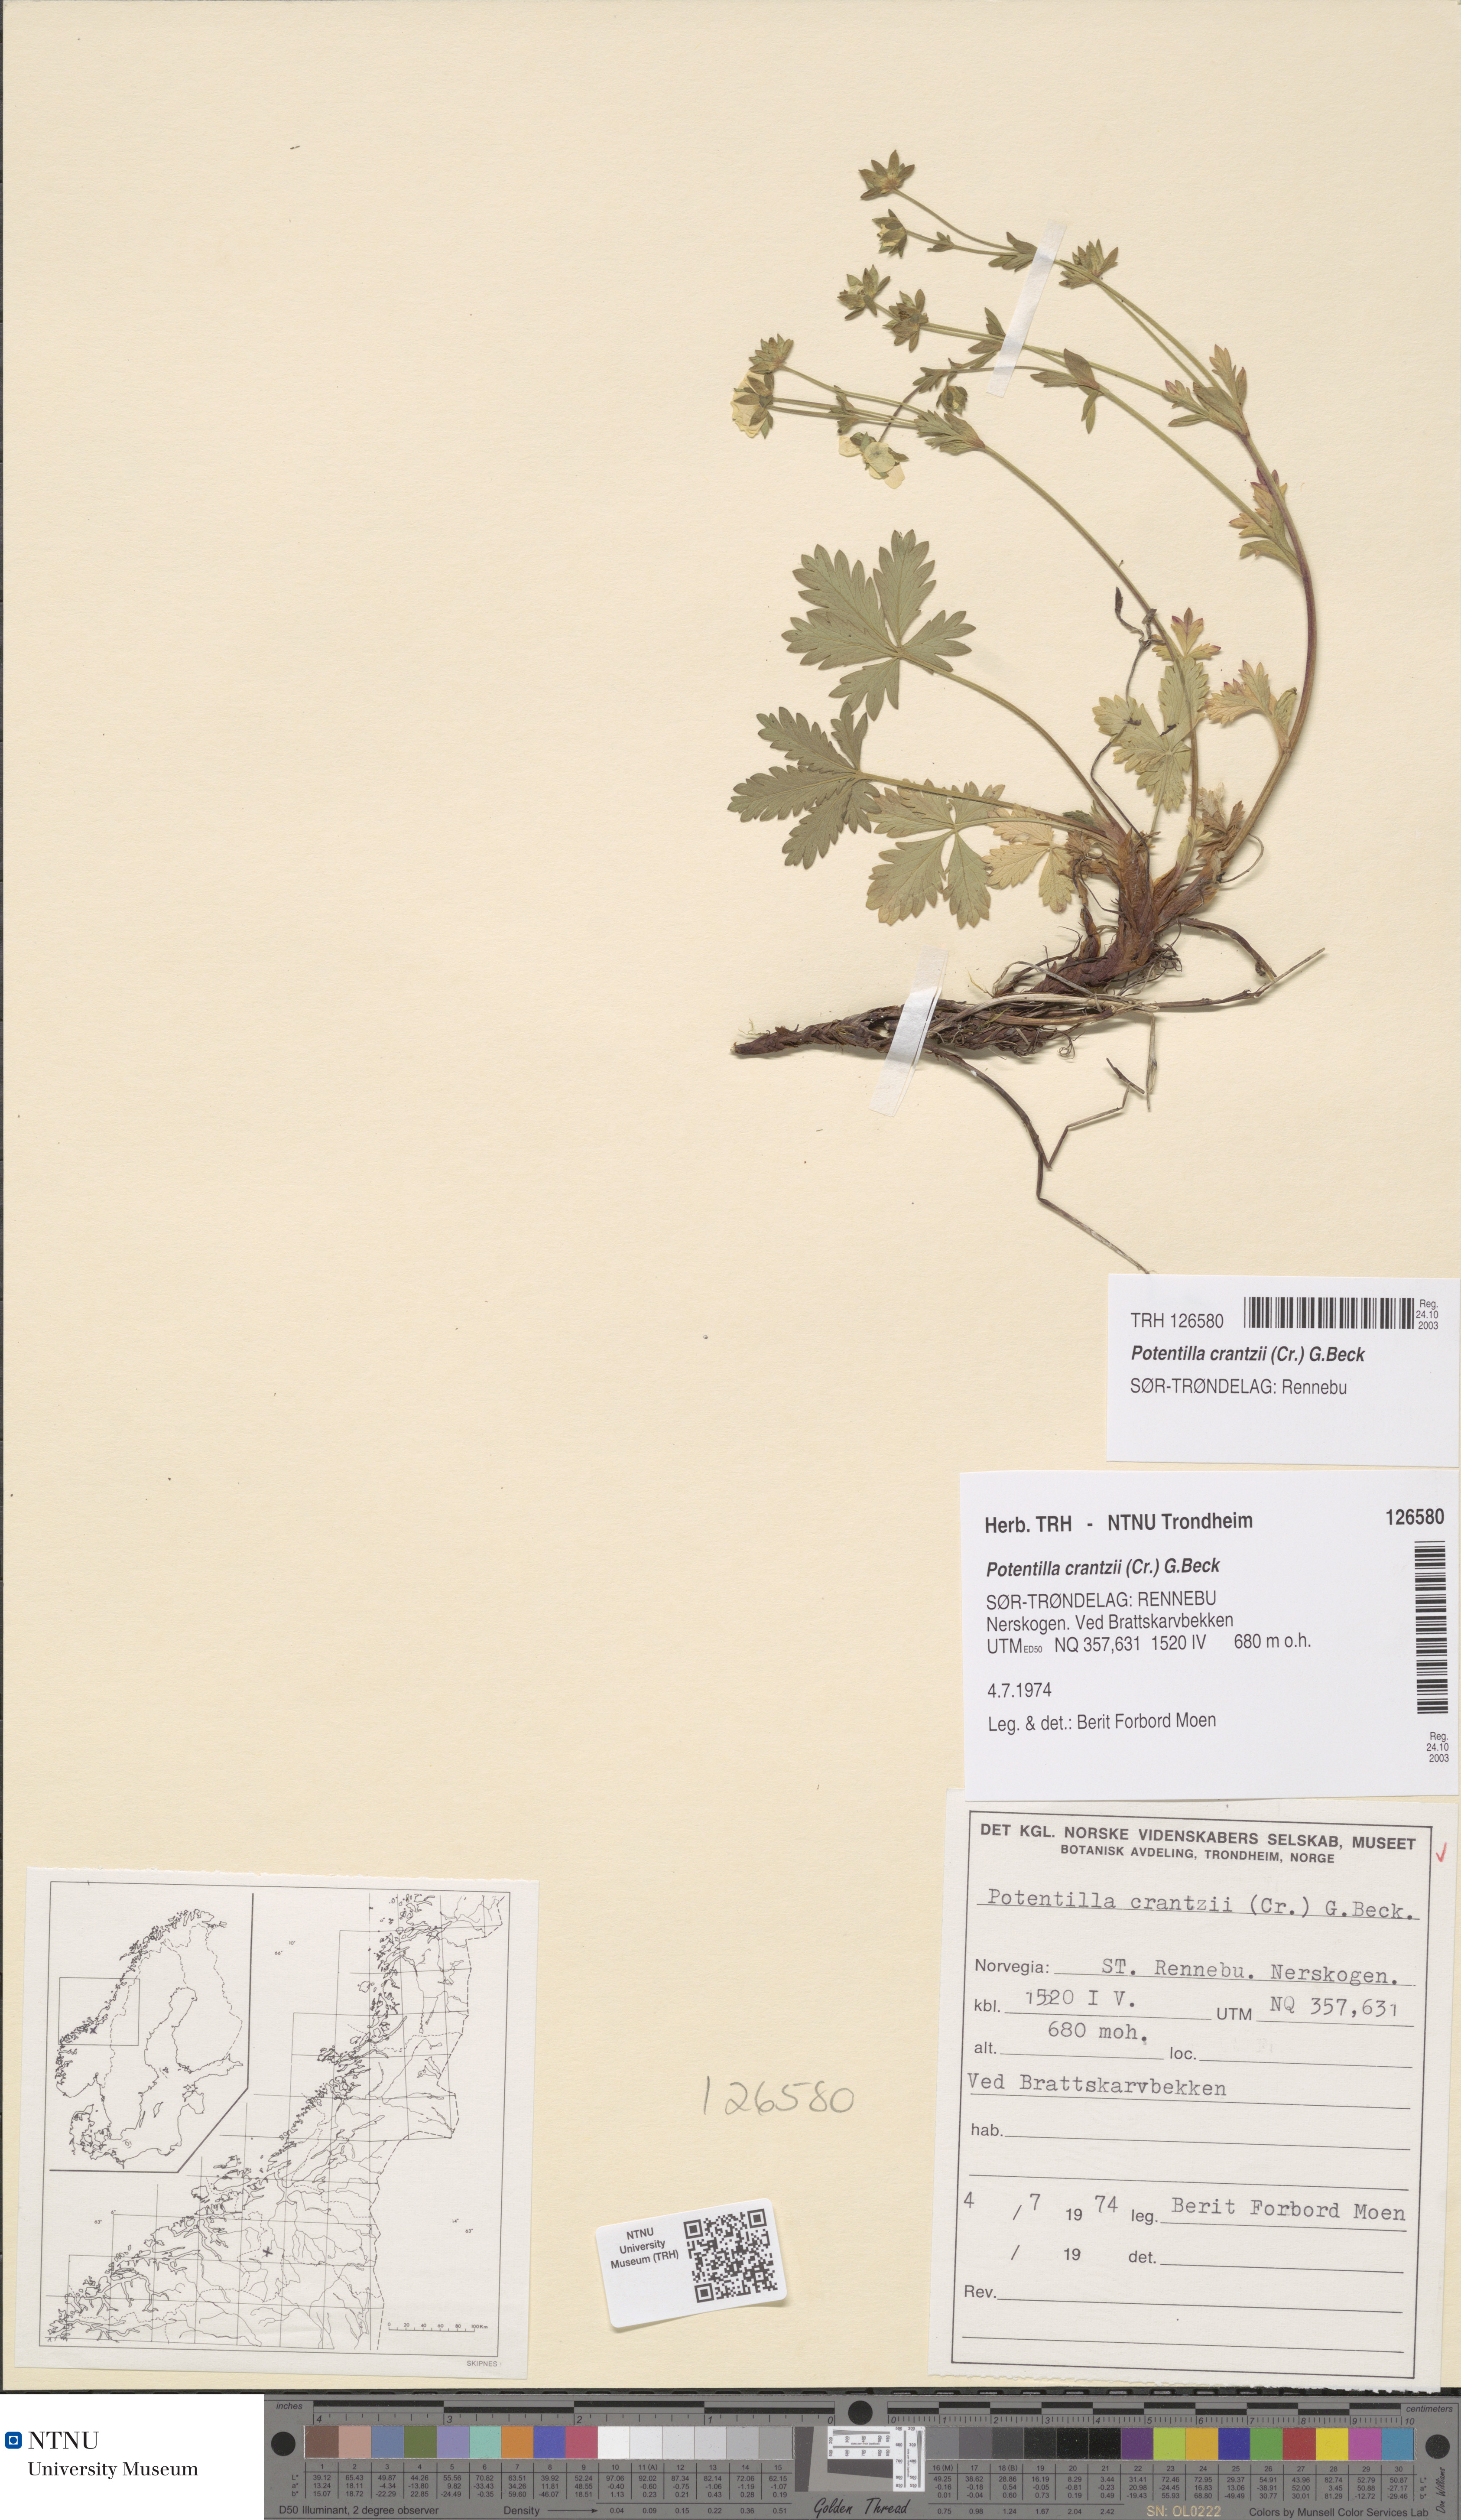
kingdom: Plantae
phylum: Tracheophyta
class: Magnoliopsida
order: Rosales
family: Rosaceae
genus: Potentilla
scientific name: Potentilla crantzii
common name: Alpine cinquefoil
